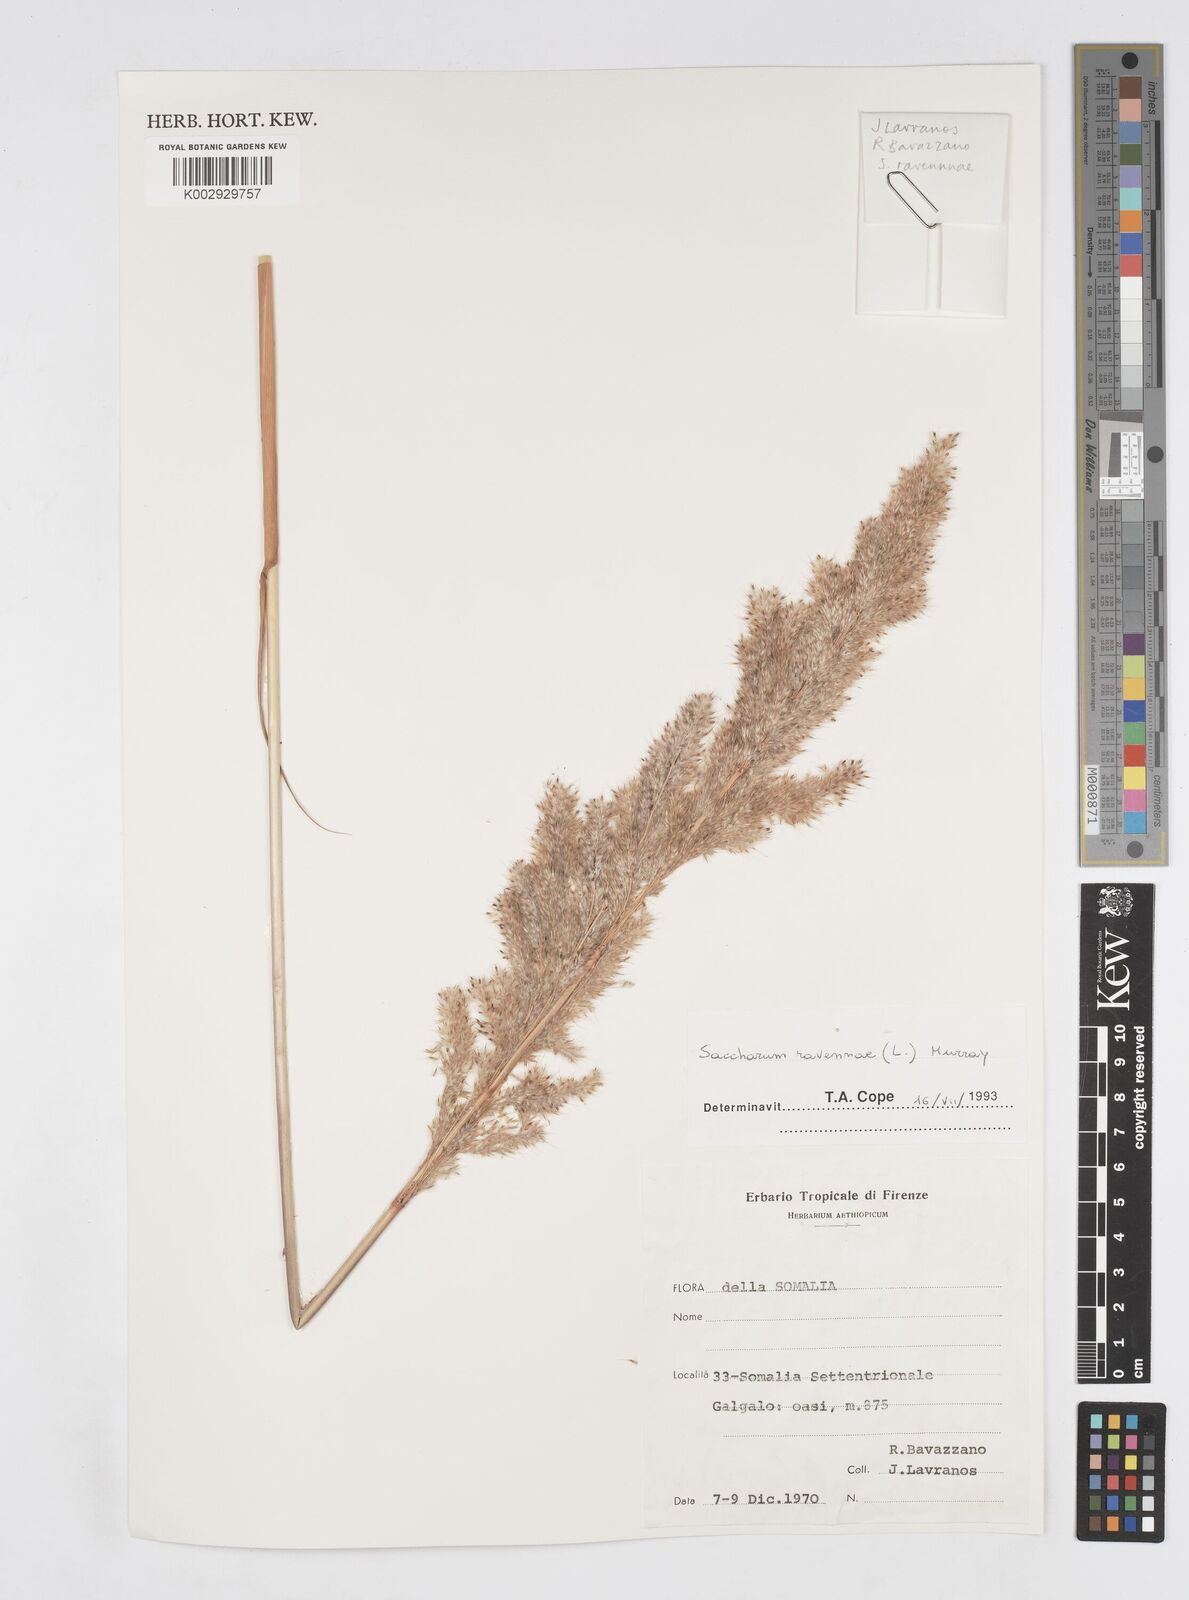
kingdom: Plantae
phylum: Tracheophyta
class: Liliopsida
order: Poales
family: Poaceae
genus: Tripidium
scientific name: Tripidium ravennae
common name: Ravenna grass
